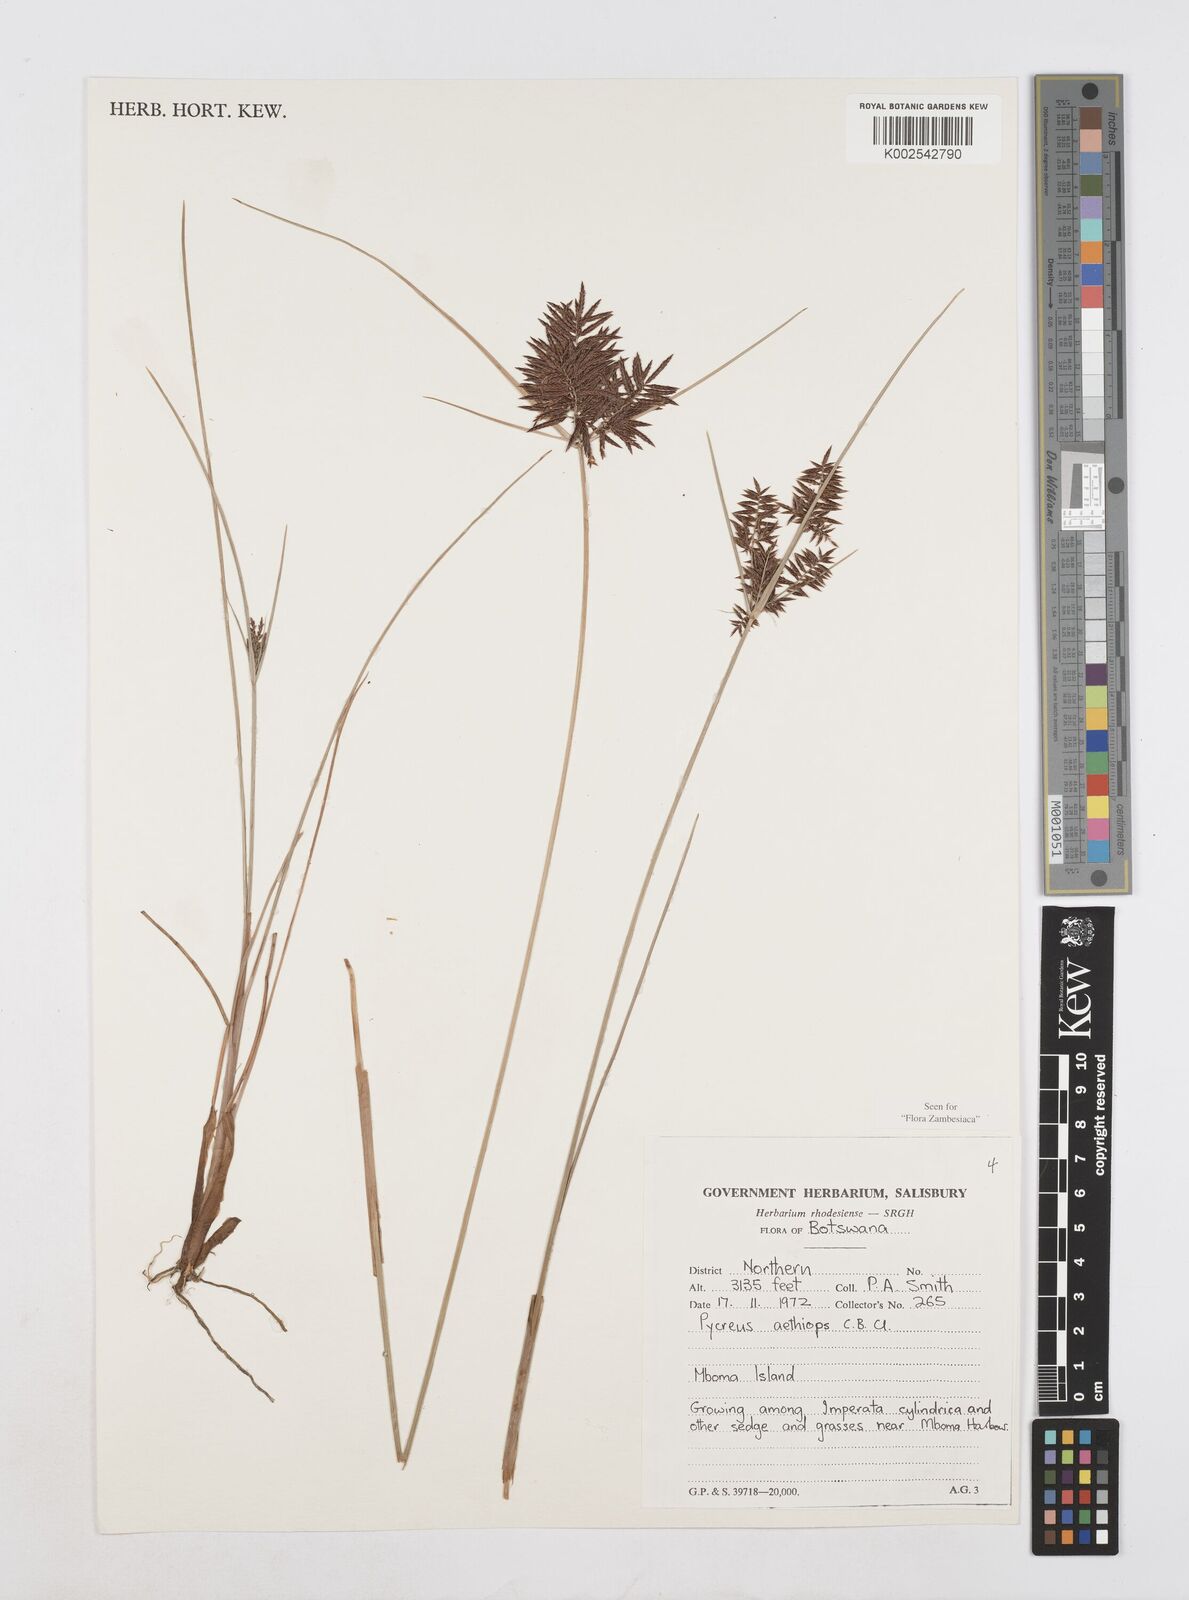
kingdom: Plantae
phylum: Tracheophyta
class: Liliopsida
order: Poales
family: Cyperaceae
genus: Cyperus
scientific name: Cyperus aethiops
